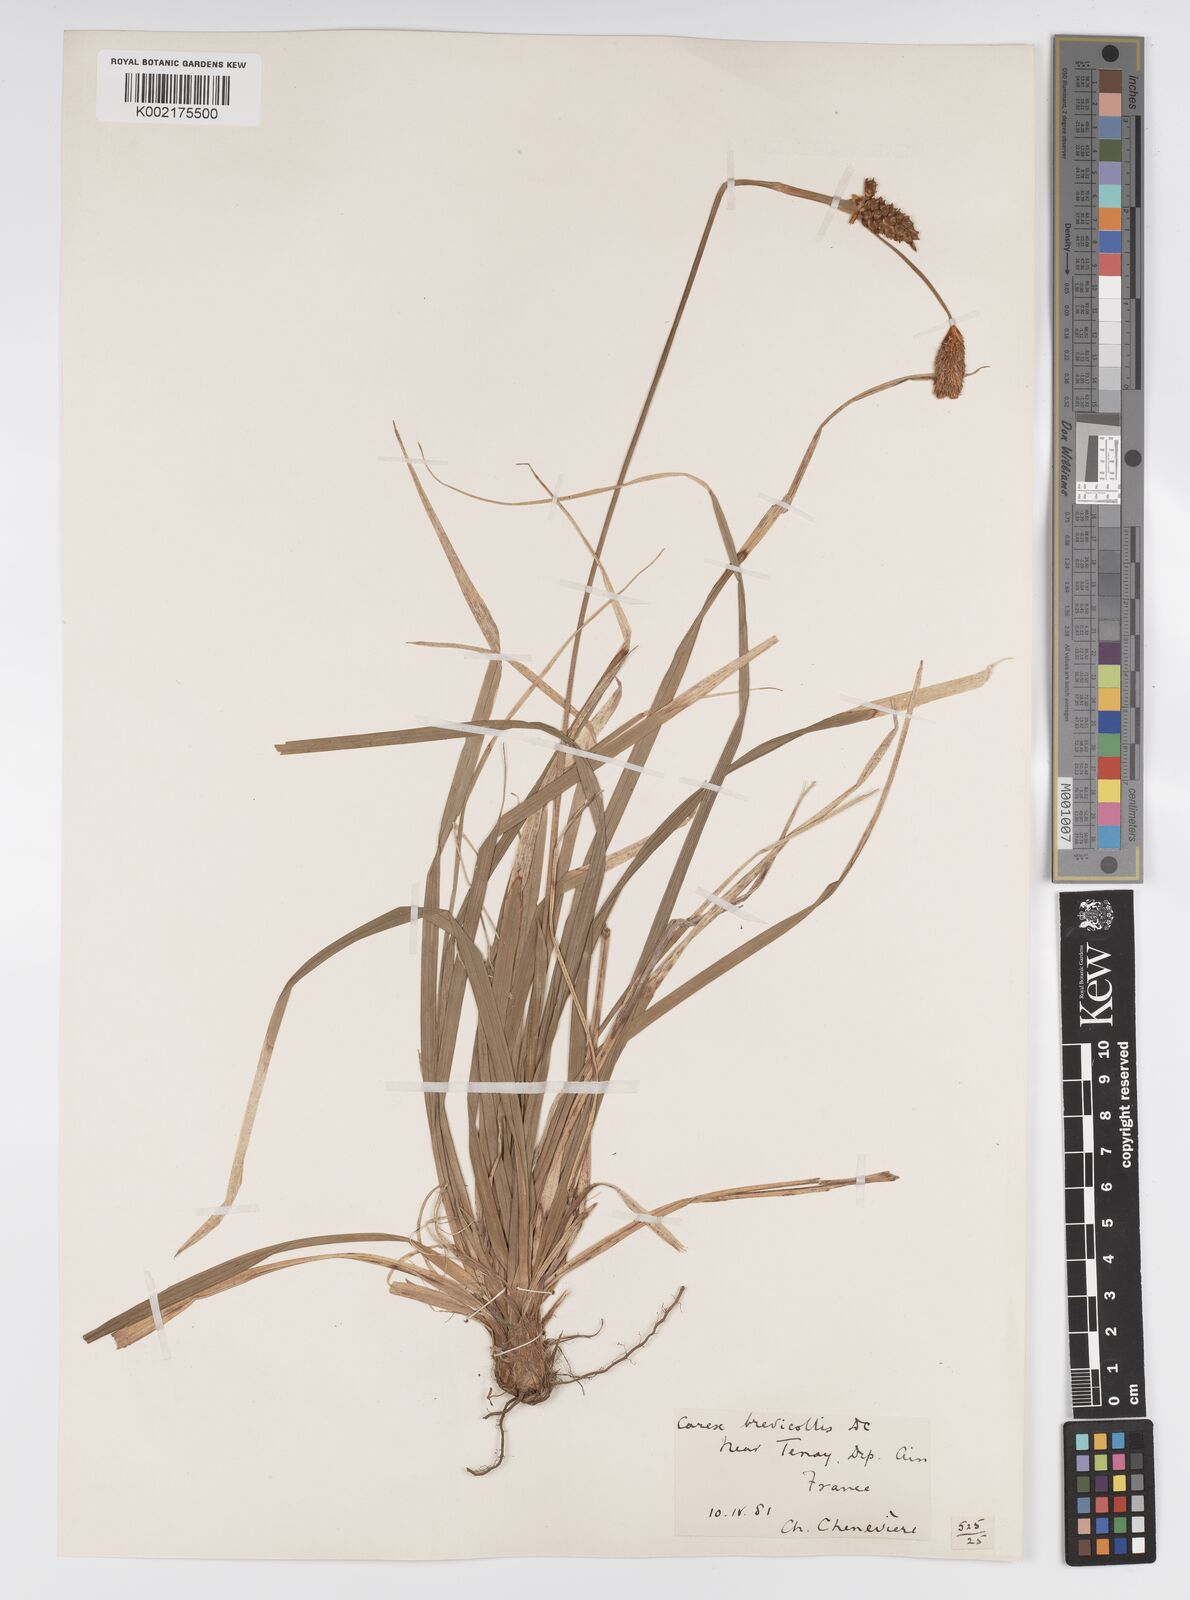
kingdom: Plantae
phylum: Tracheophyta
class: Liliopsida
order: Poales
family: Cyperaceae
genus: Carex
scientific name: Carex brevicollis
